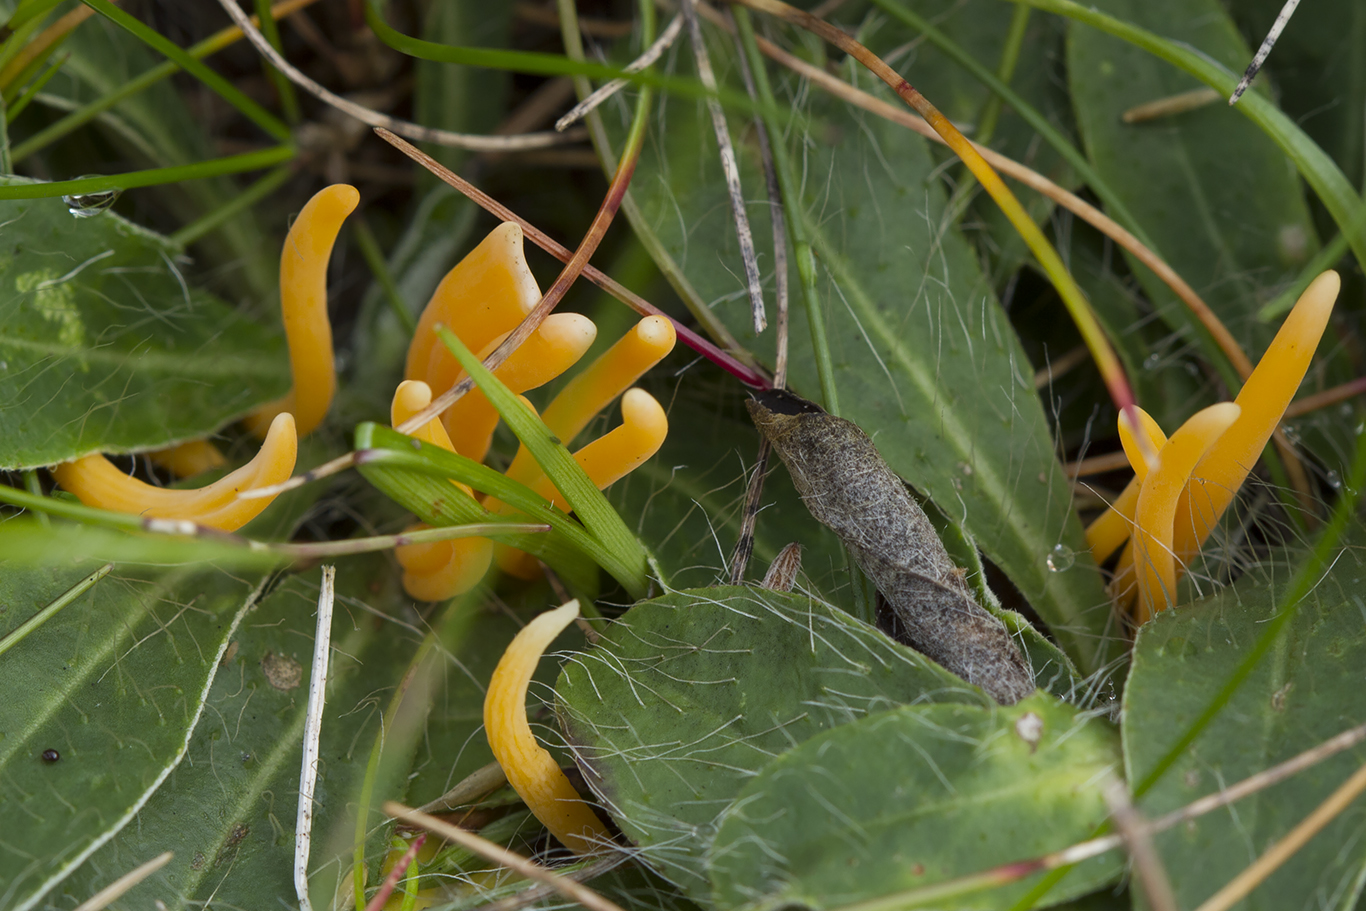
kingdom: Fungi
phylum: Basidiomycota
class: Agaricomycetes
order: Agaricales
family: Clavariaceae
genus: Clavulinopsis
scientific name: Clavulinopsis luteoalba
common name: abrikos-køllesvamp
